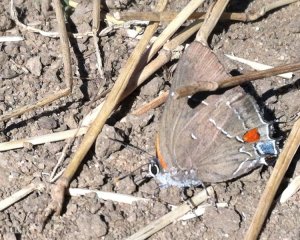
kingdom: Animalia
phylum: Arthropoda
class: Insecta
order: Lepidoptera
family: Lycaenidae
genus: Parrhasius
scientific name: Parrhasius m-album
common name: White-m Hairstreak
